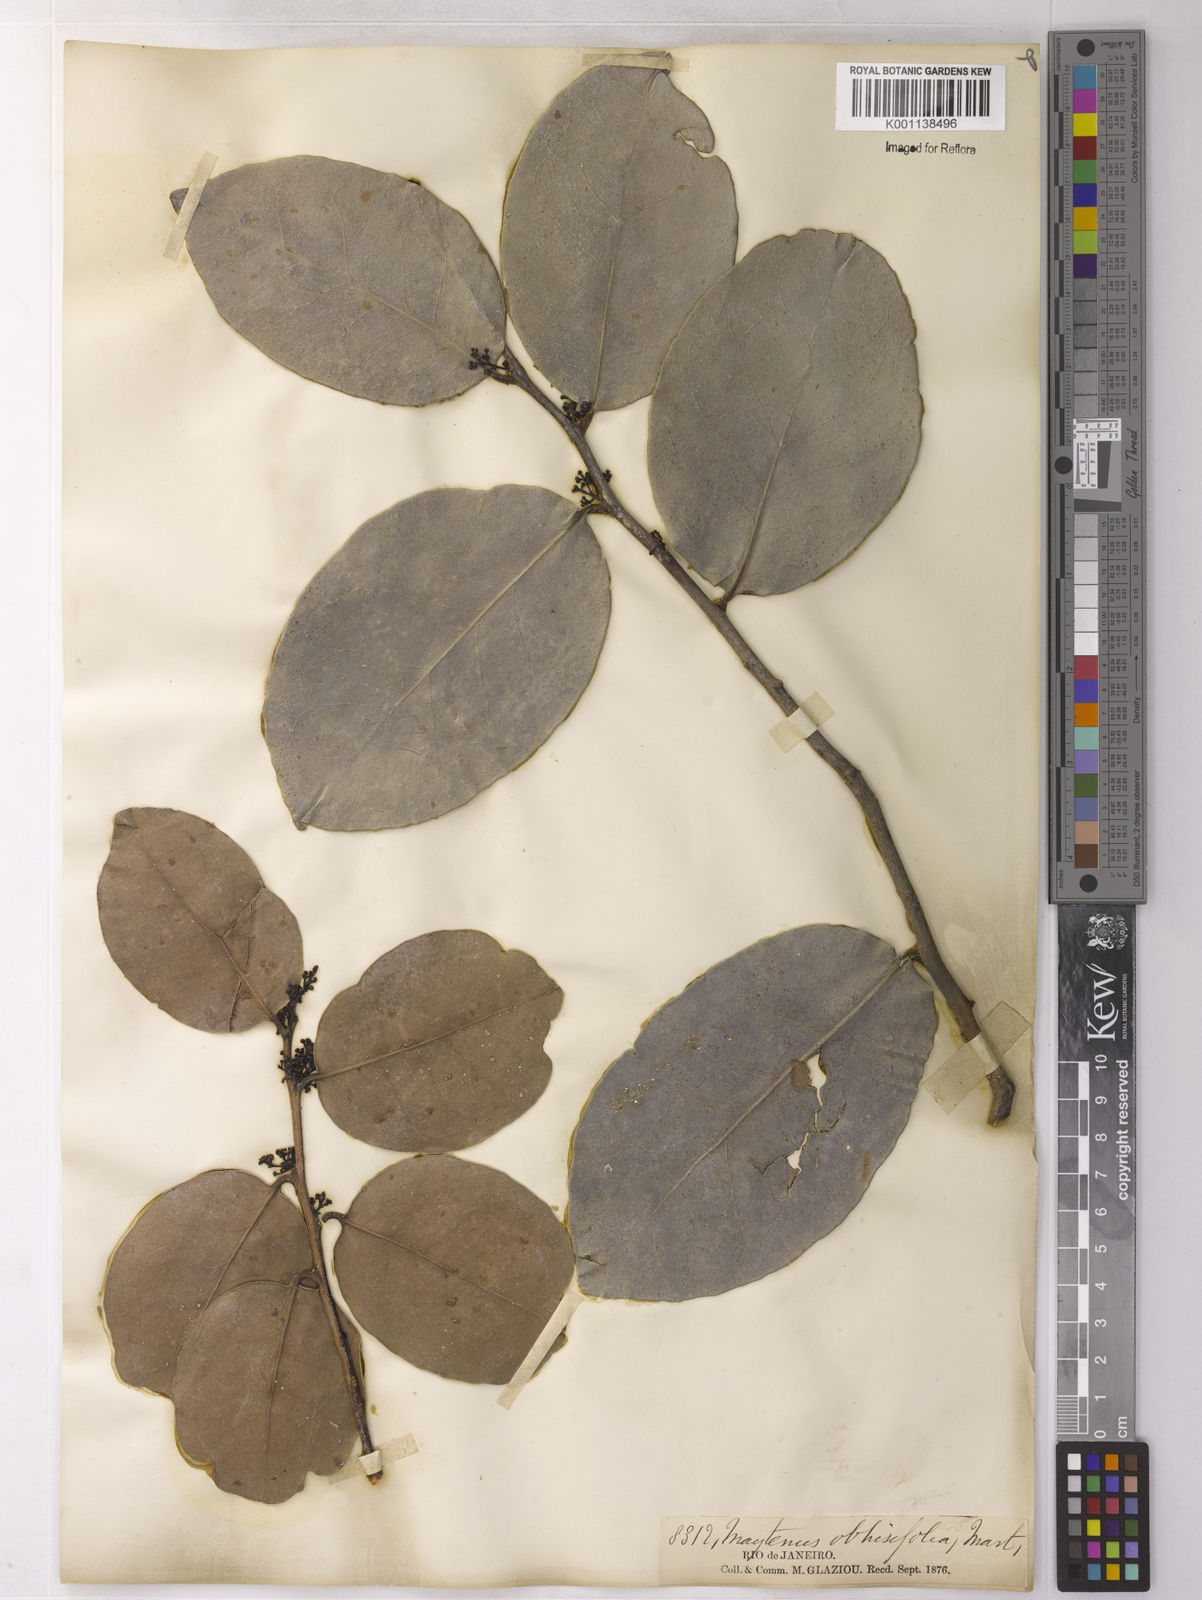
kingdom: Plantae
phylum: Tracheophyta
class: Magnoliopsida
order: Celastrales
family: Celastraceae
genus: Monteverdia
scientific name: Monteverdia obtusifolia
